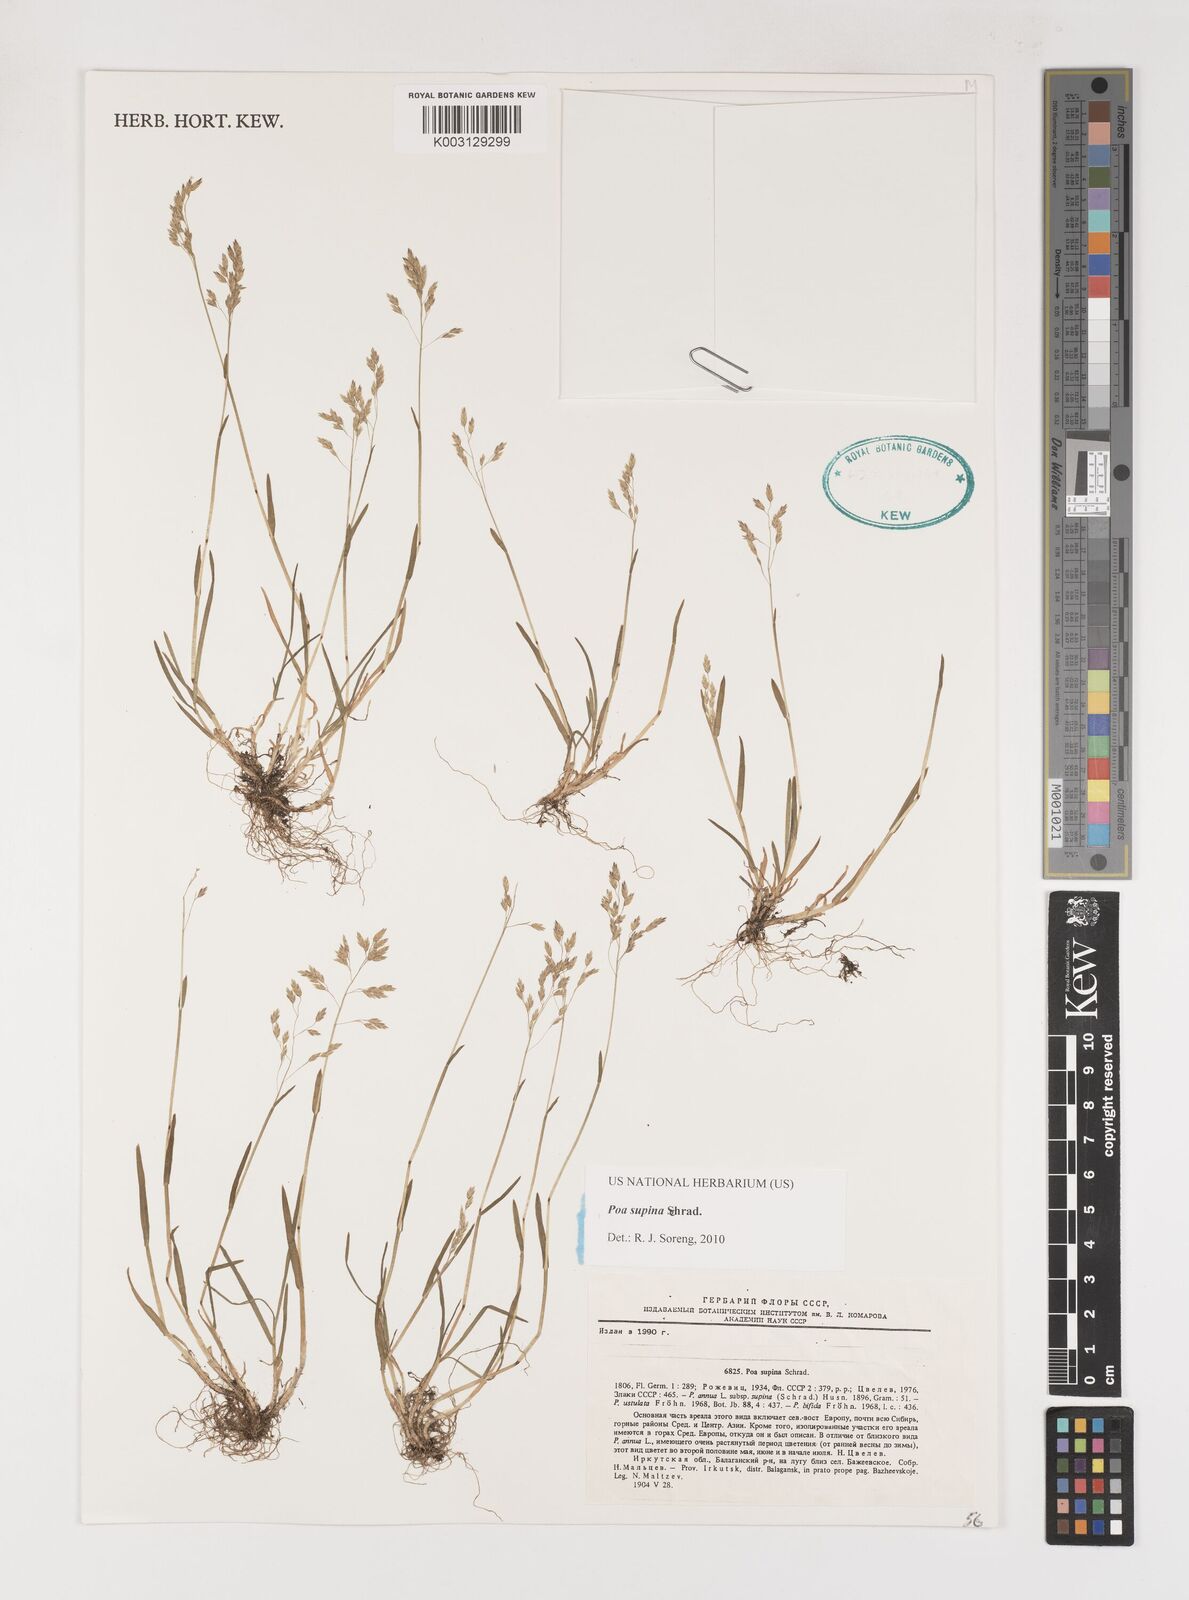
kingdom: Plantae
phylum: Tracheophyta
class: Liliopsida
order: Poales
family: Poaceae
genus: Poa
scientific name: Poa supina
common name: Supina bluegrass
